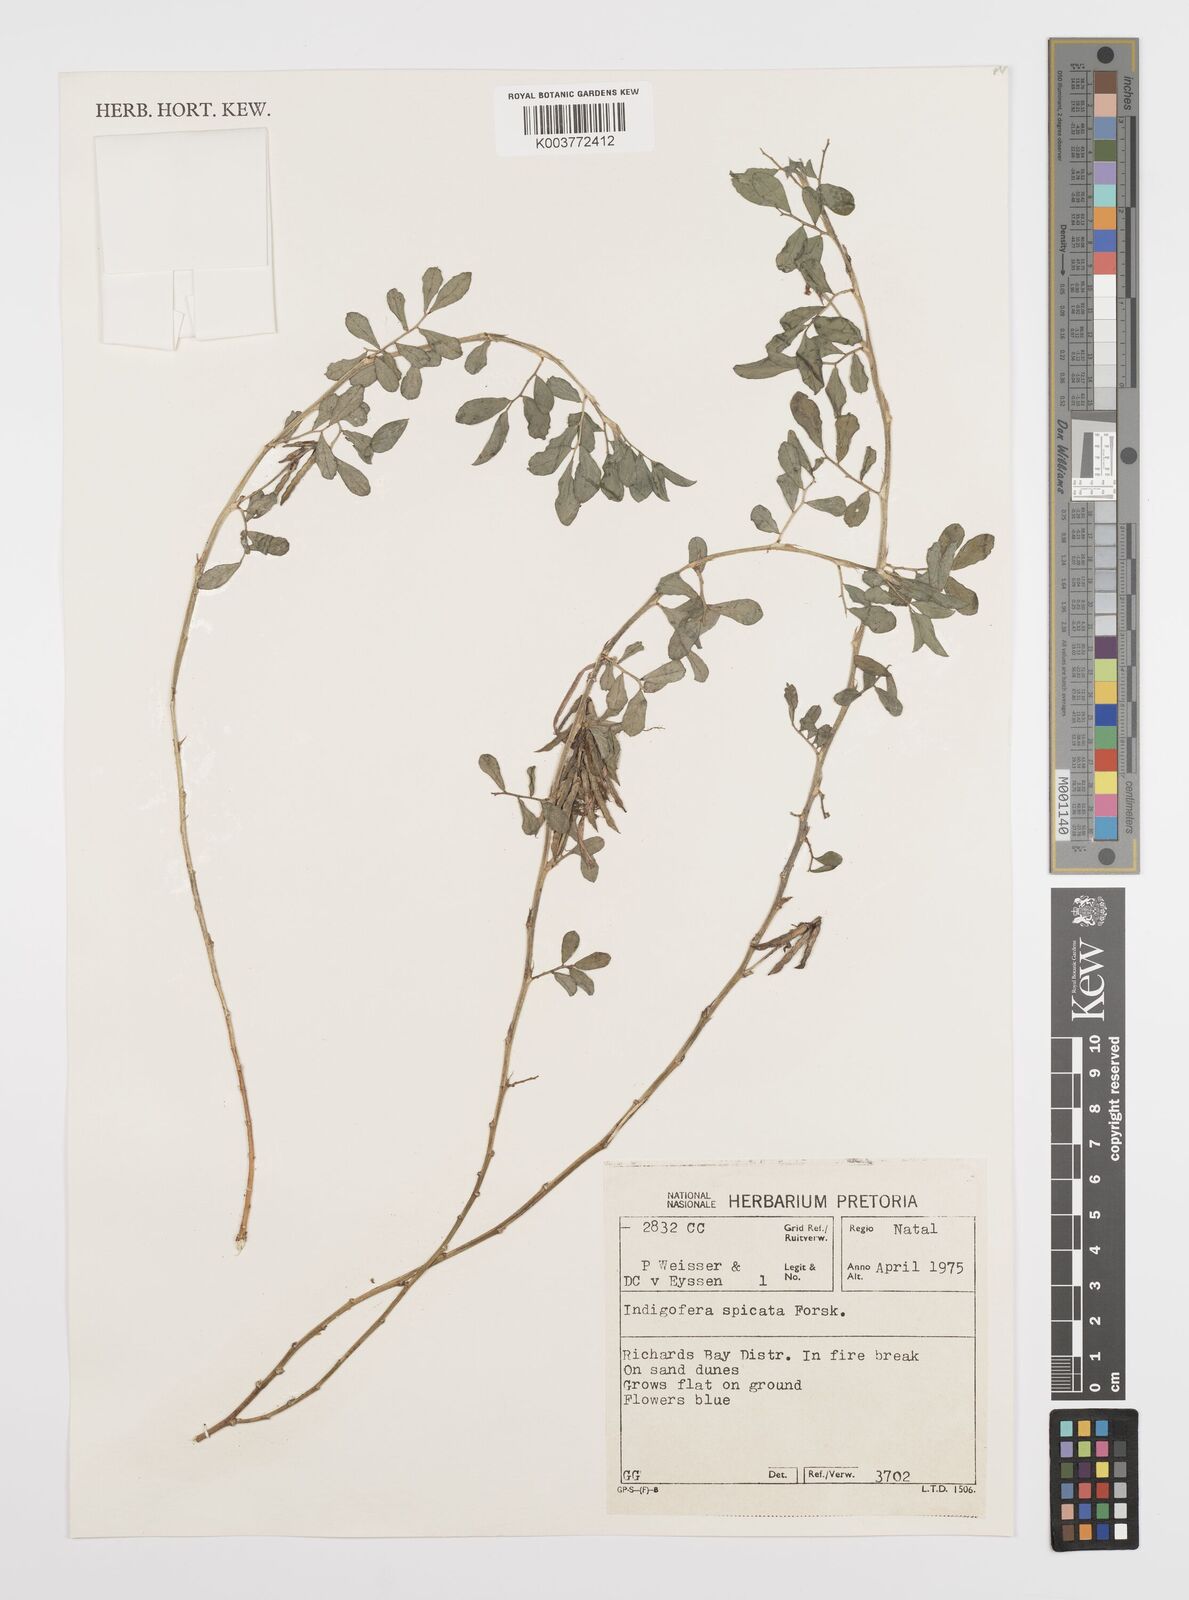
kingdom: Plantae
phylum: Tracheophyta
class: Magnoliopsida
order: Fabales
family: Fabaceae
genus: Indigofera
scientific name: Indigofera spicata
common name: Creeping indigo
